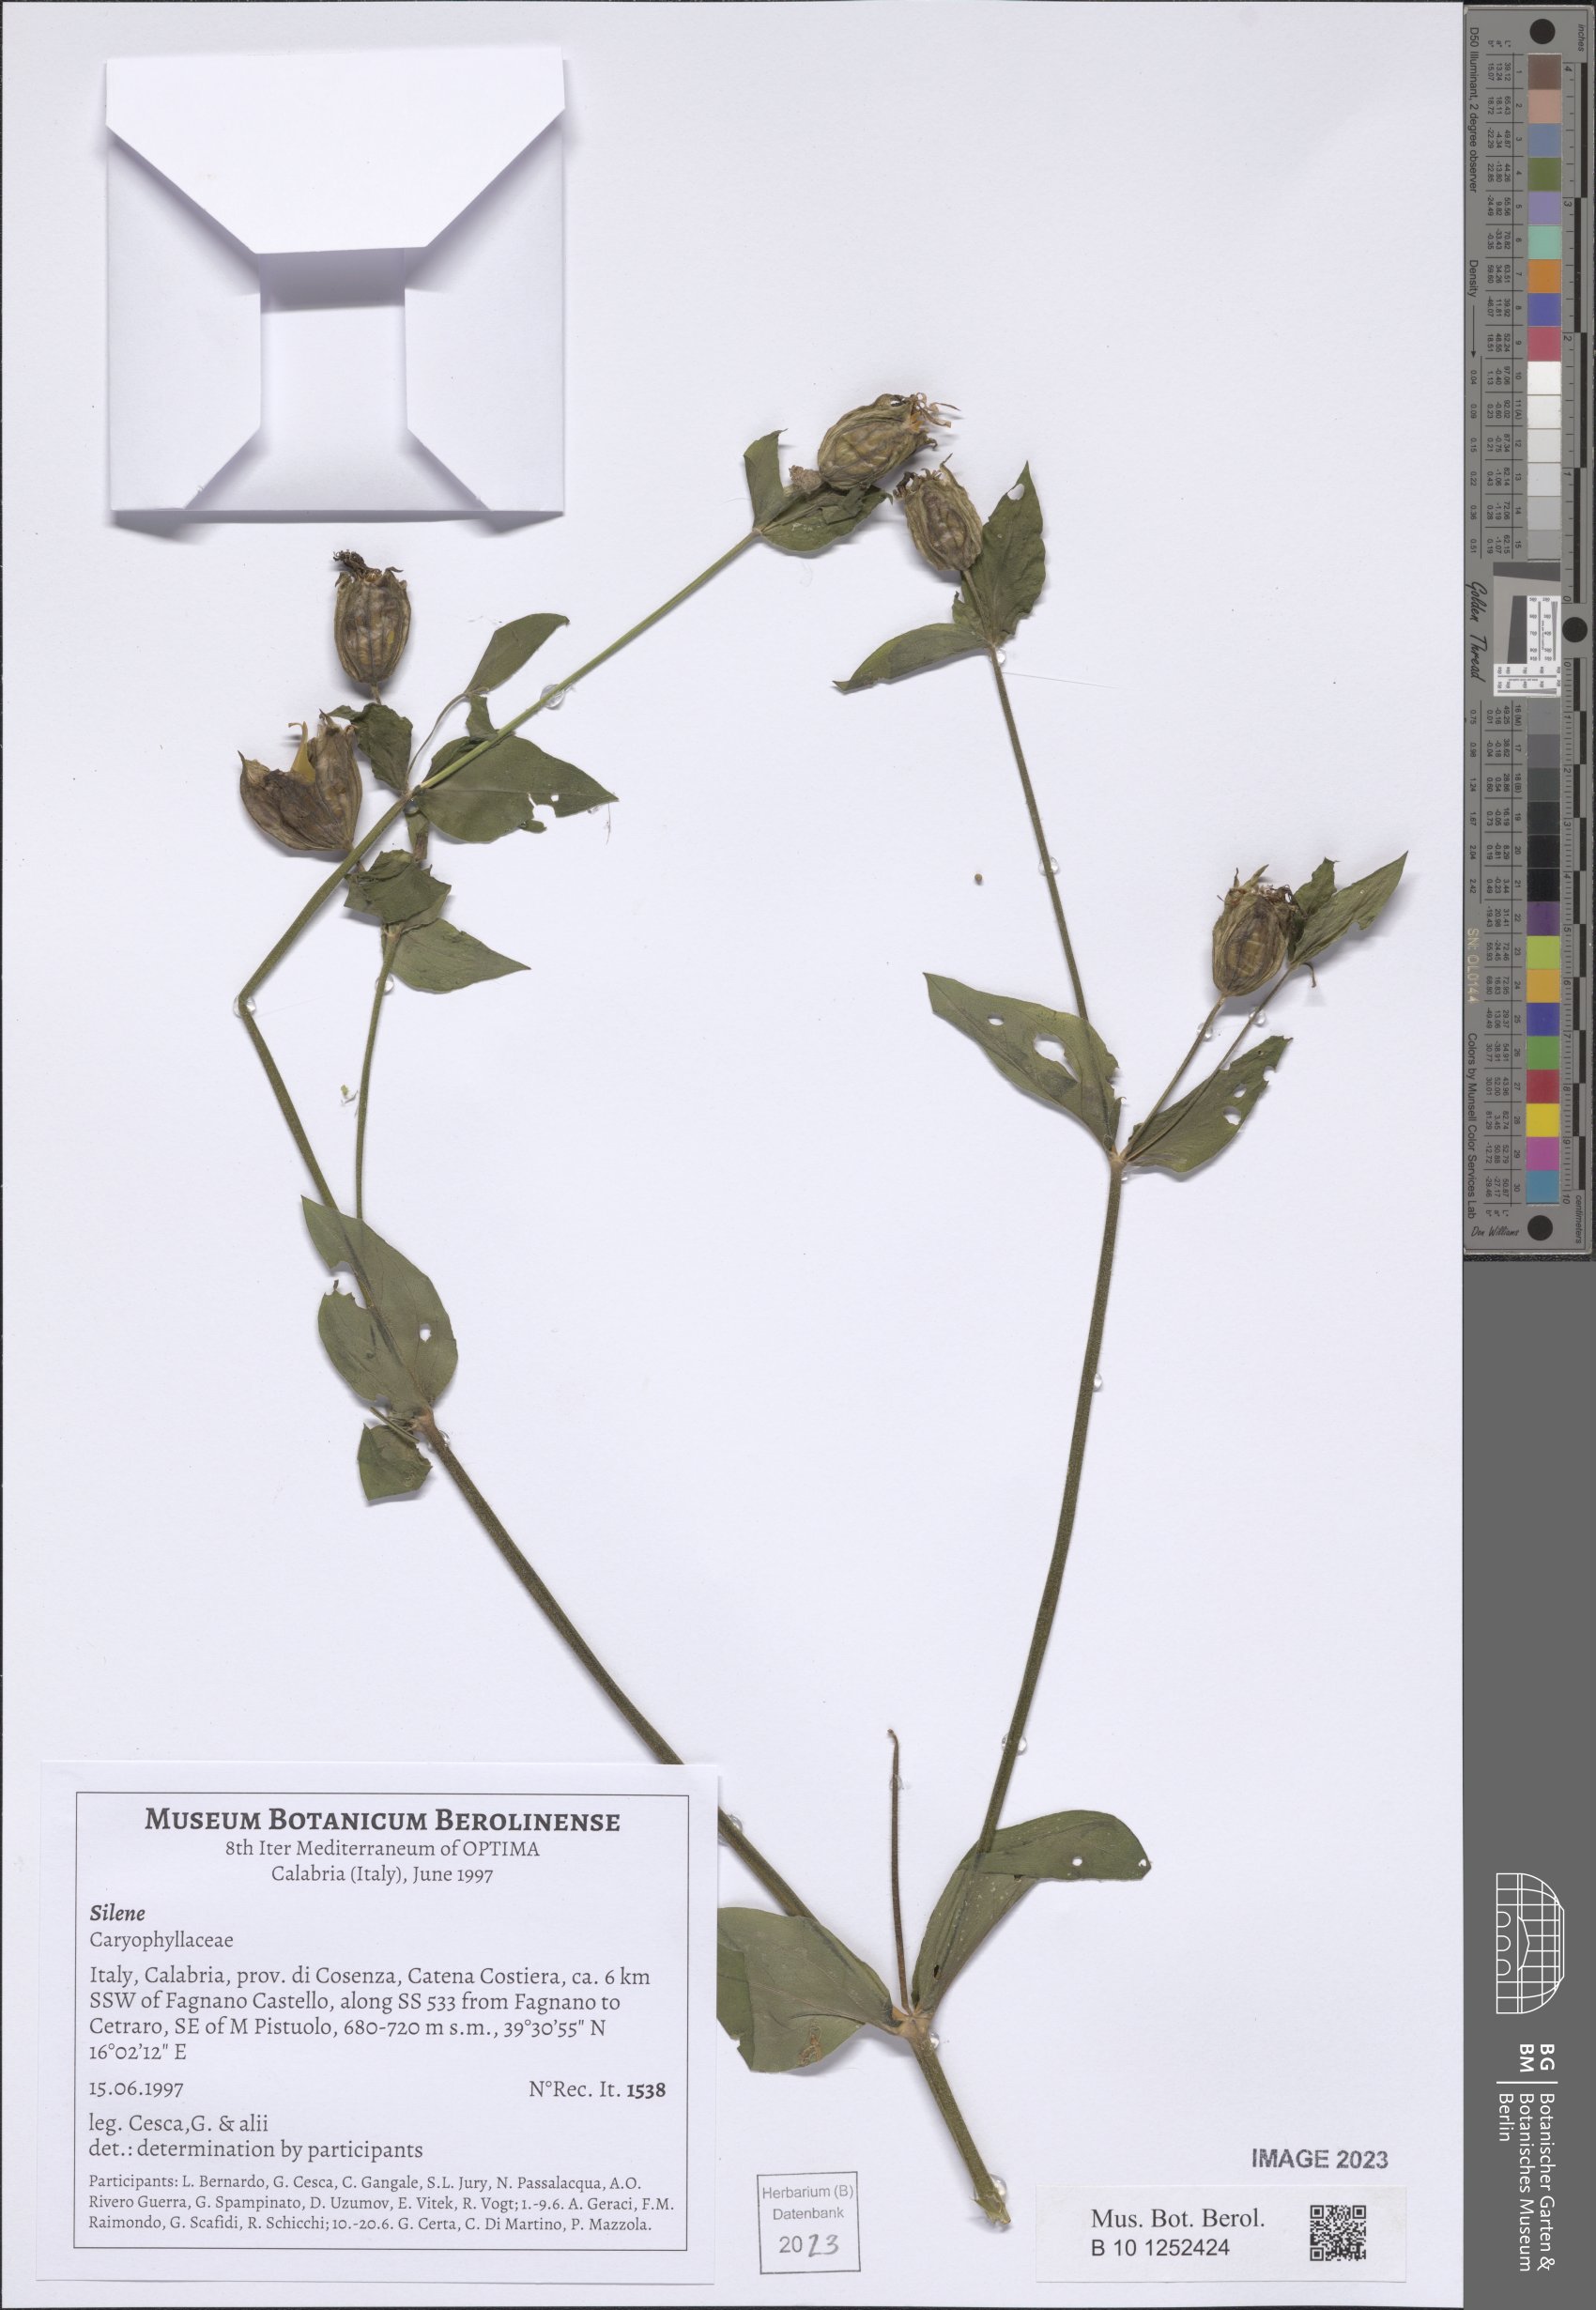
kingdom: Plantae
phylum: Tracheophyta
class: Magnoliopsida
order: Caryophyllales
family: Caryophyllaceae
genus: Silene
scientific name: Silene
